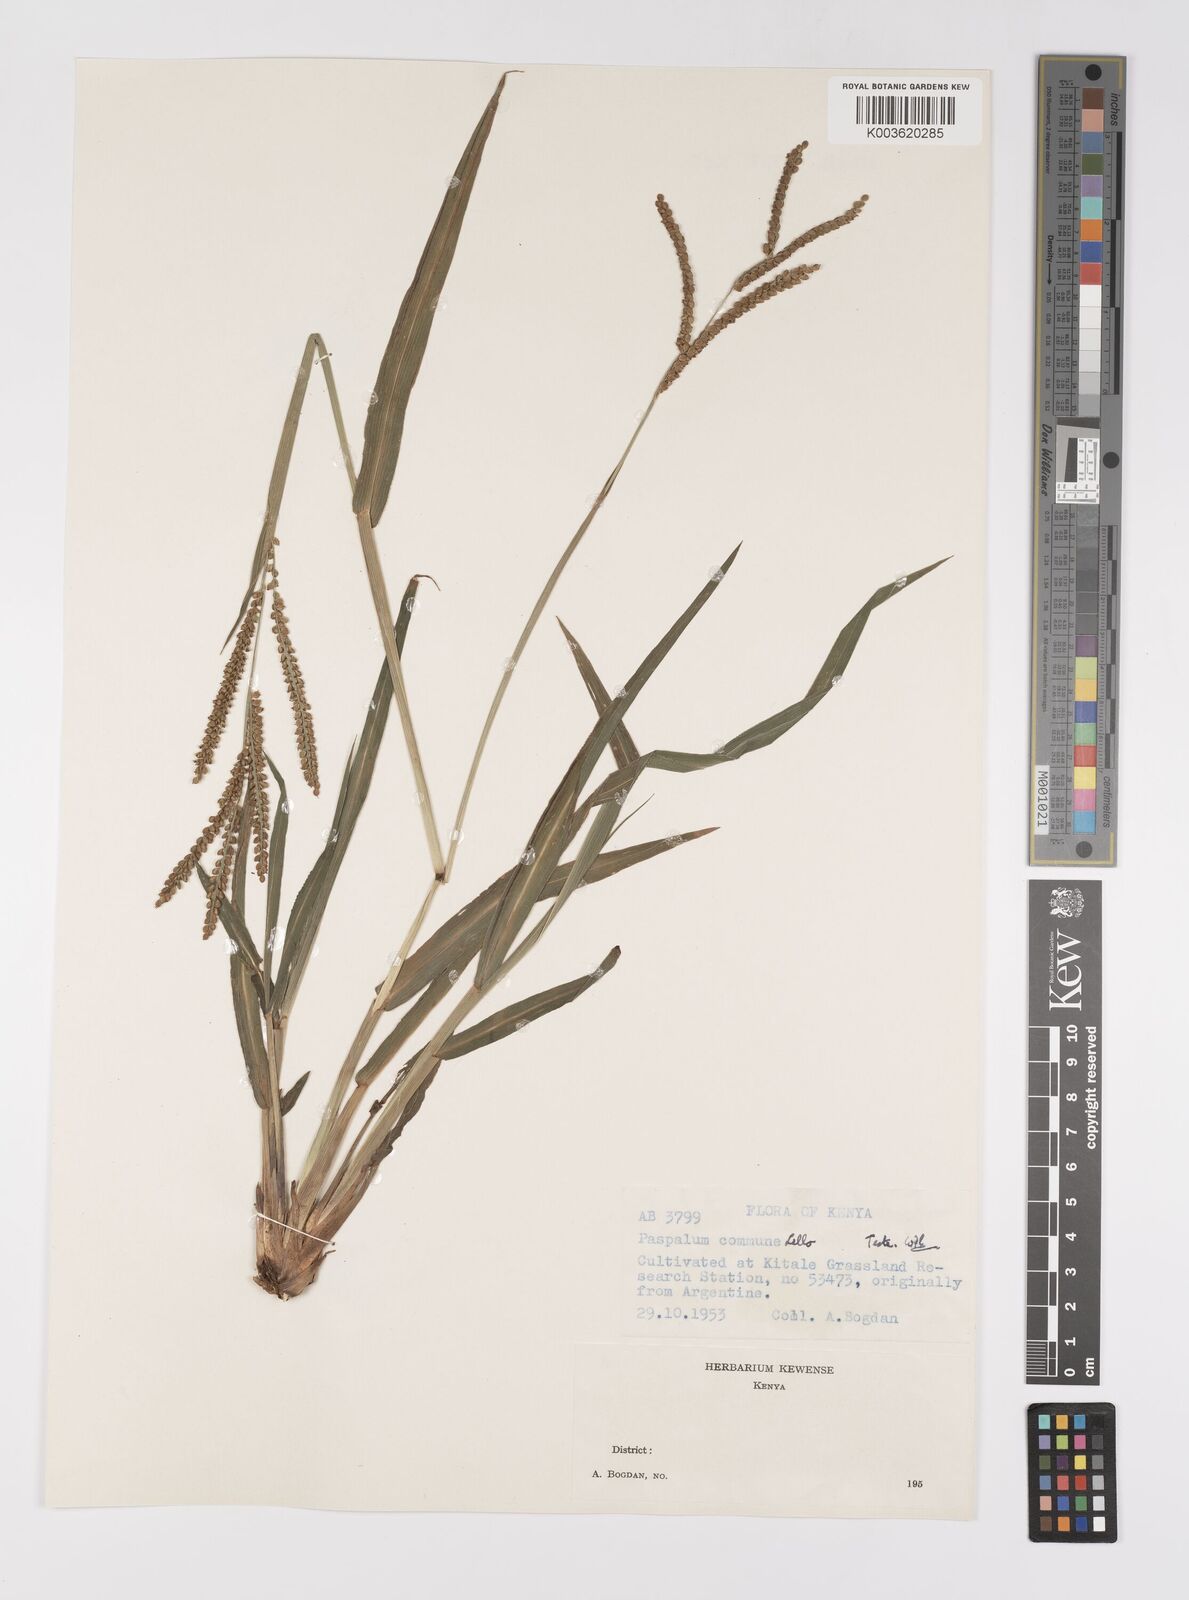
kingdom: Plantae
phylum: Tracheophyta
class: Liliopsida
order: Poales
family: Poaceae
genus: Paspalum
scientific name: Paspalum commune
